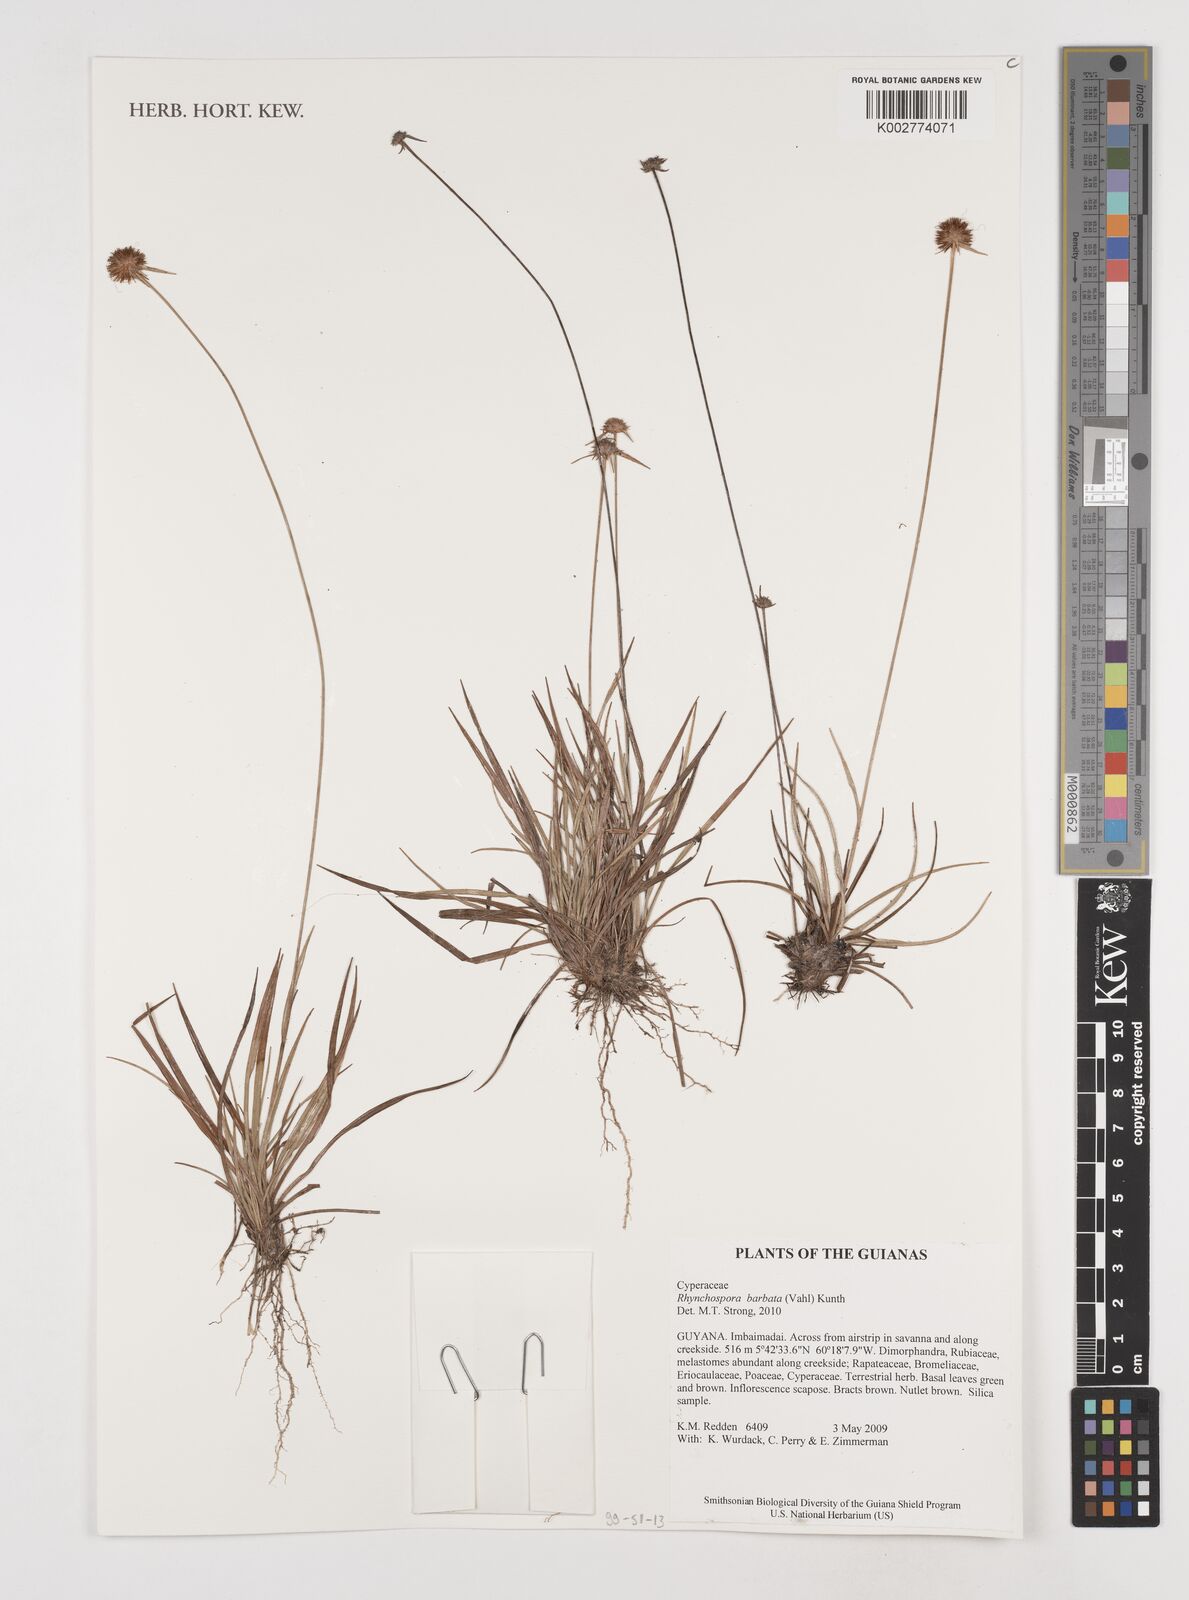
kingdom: Plantae
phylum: Tracheophyta
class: Liliopsida
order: Poales
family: Cyperaceae
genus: Rhynchospora
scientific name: Rhynchospora barbata
